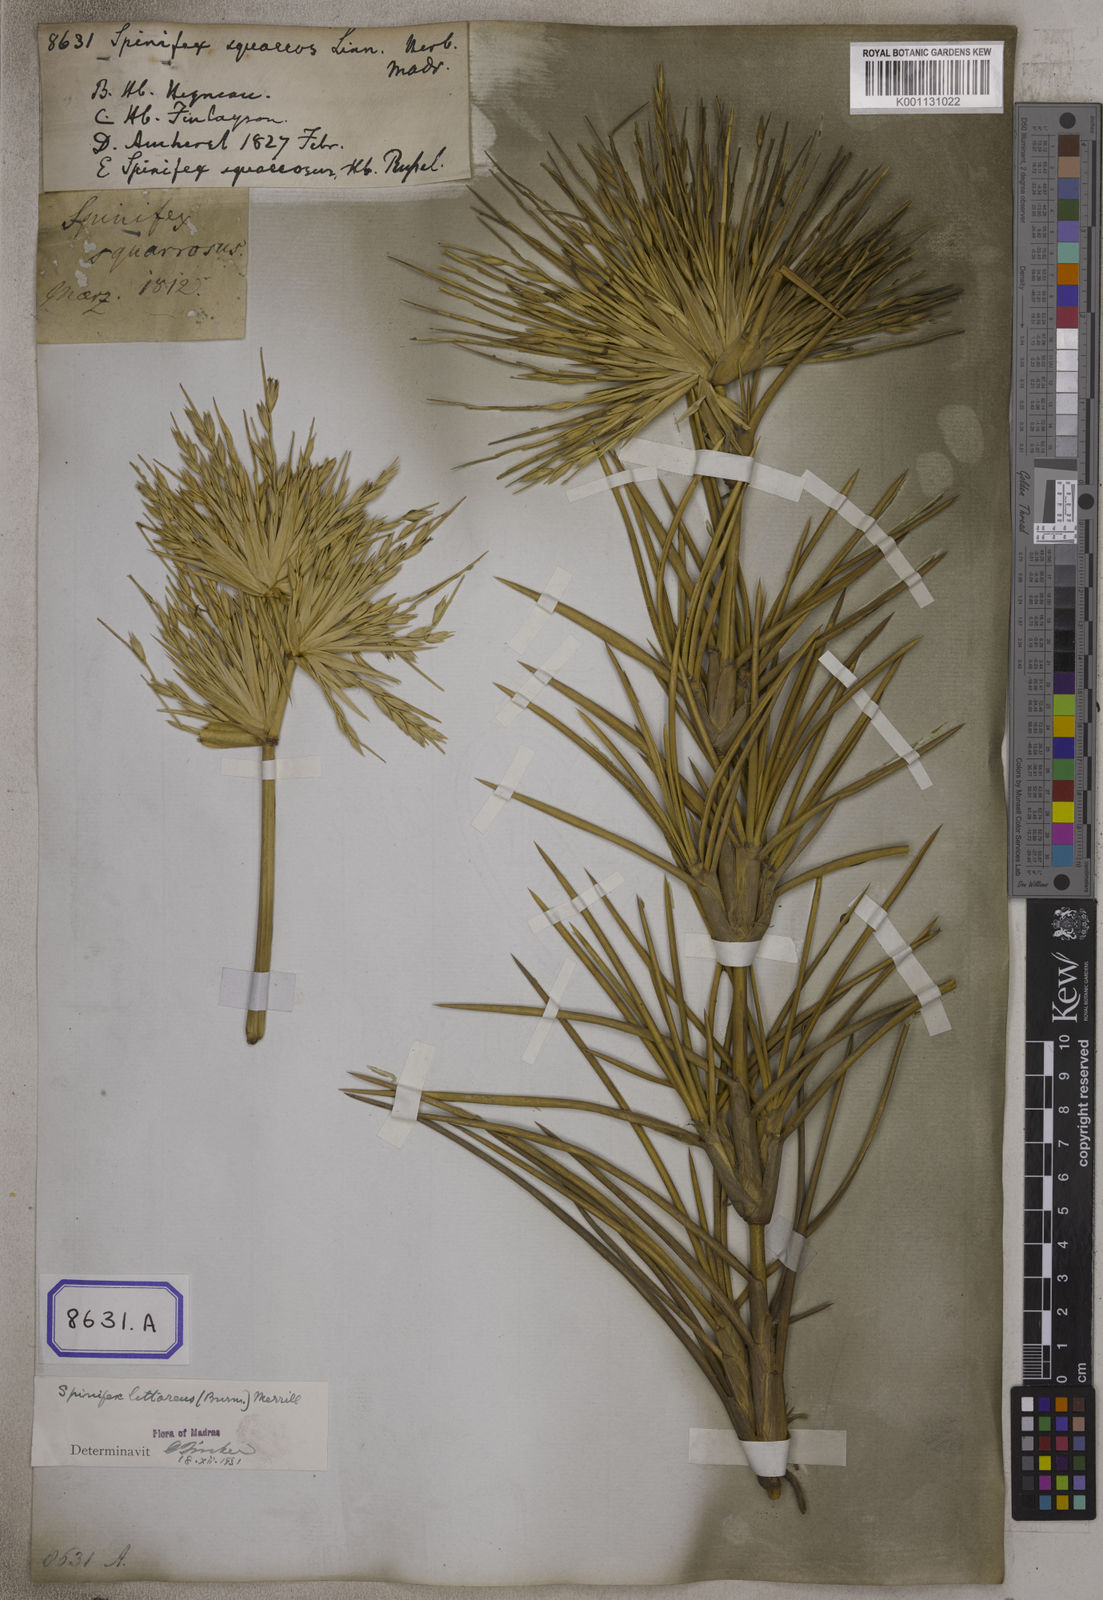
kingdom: Plantae
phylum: Tracheophyta
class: Liliopsida
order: Poales
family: Poaceae
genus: Spinifex
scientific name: Spinifex littoreus
